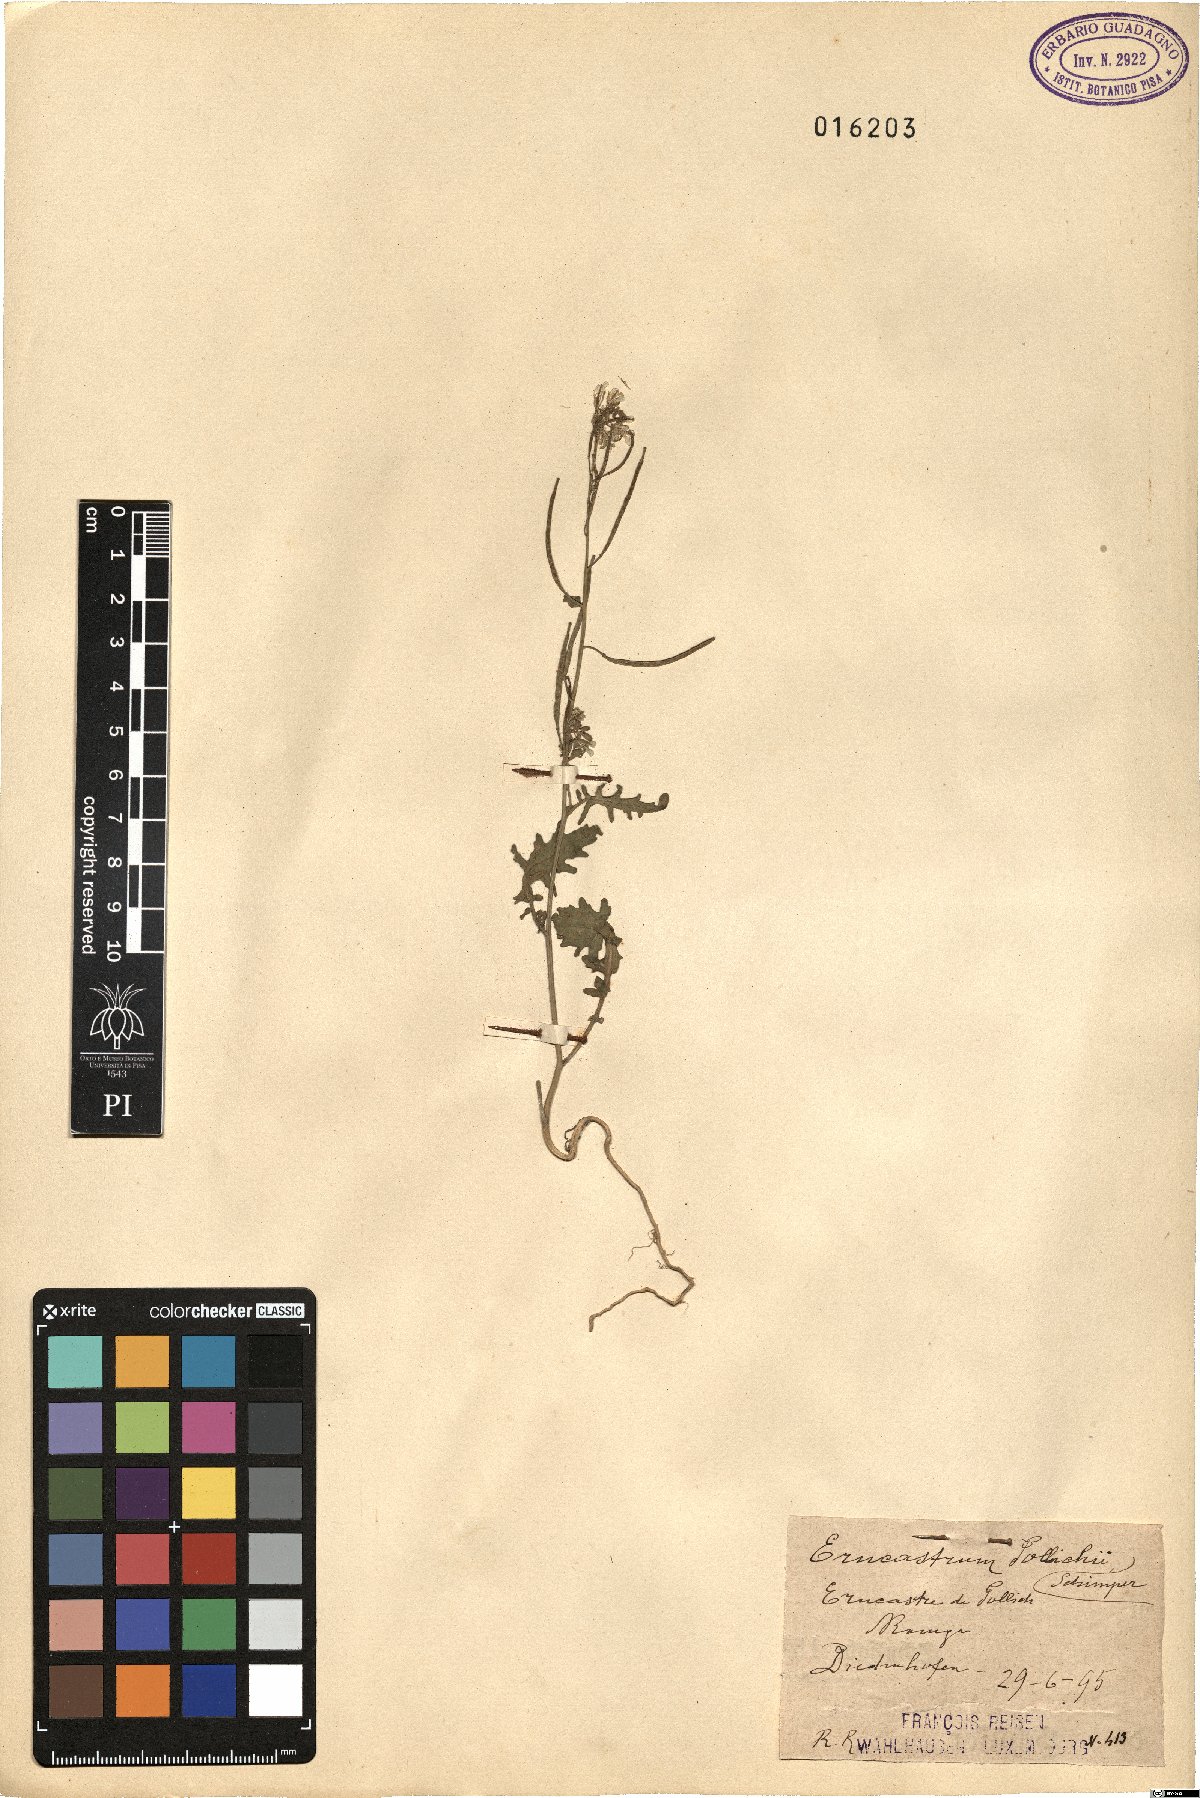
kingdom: Plantae
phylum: Tracheophyta
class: Magnoliopsida
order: Brassicales
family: Brassicaceae
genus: Erucastrum
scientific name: Erucastrum gallicum
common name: Hairy rocket
